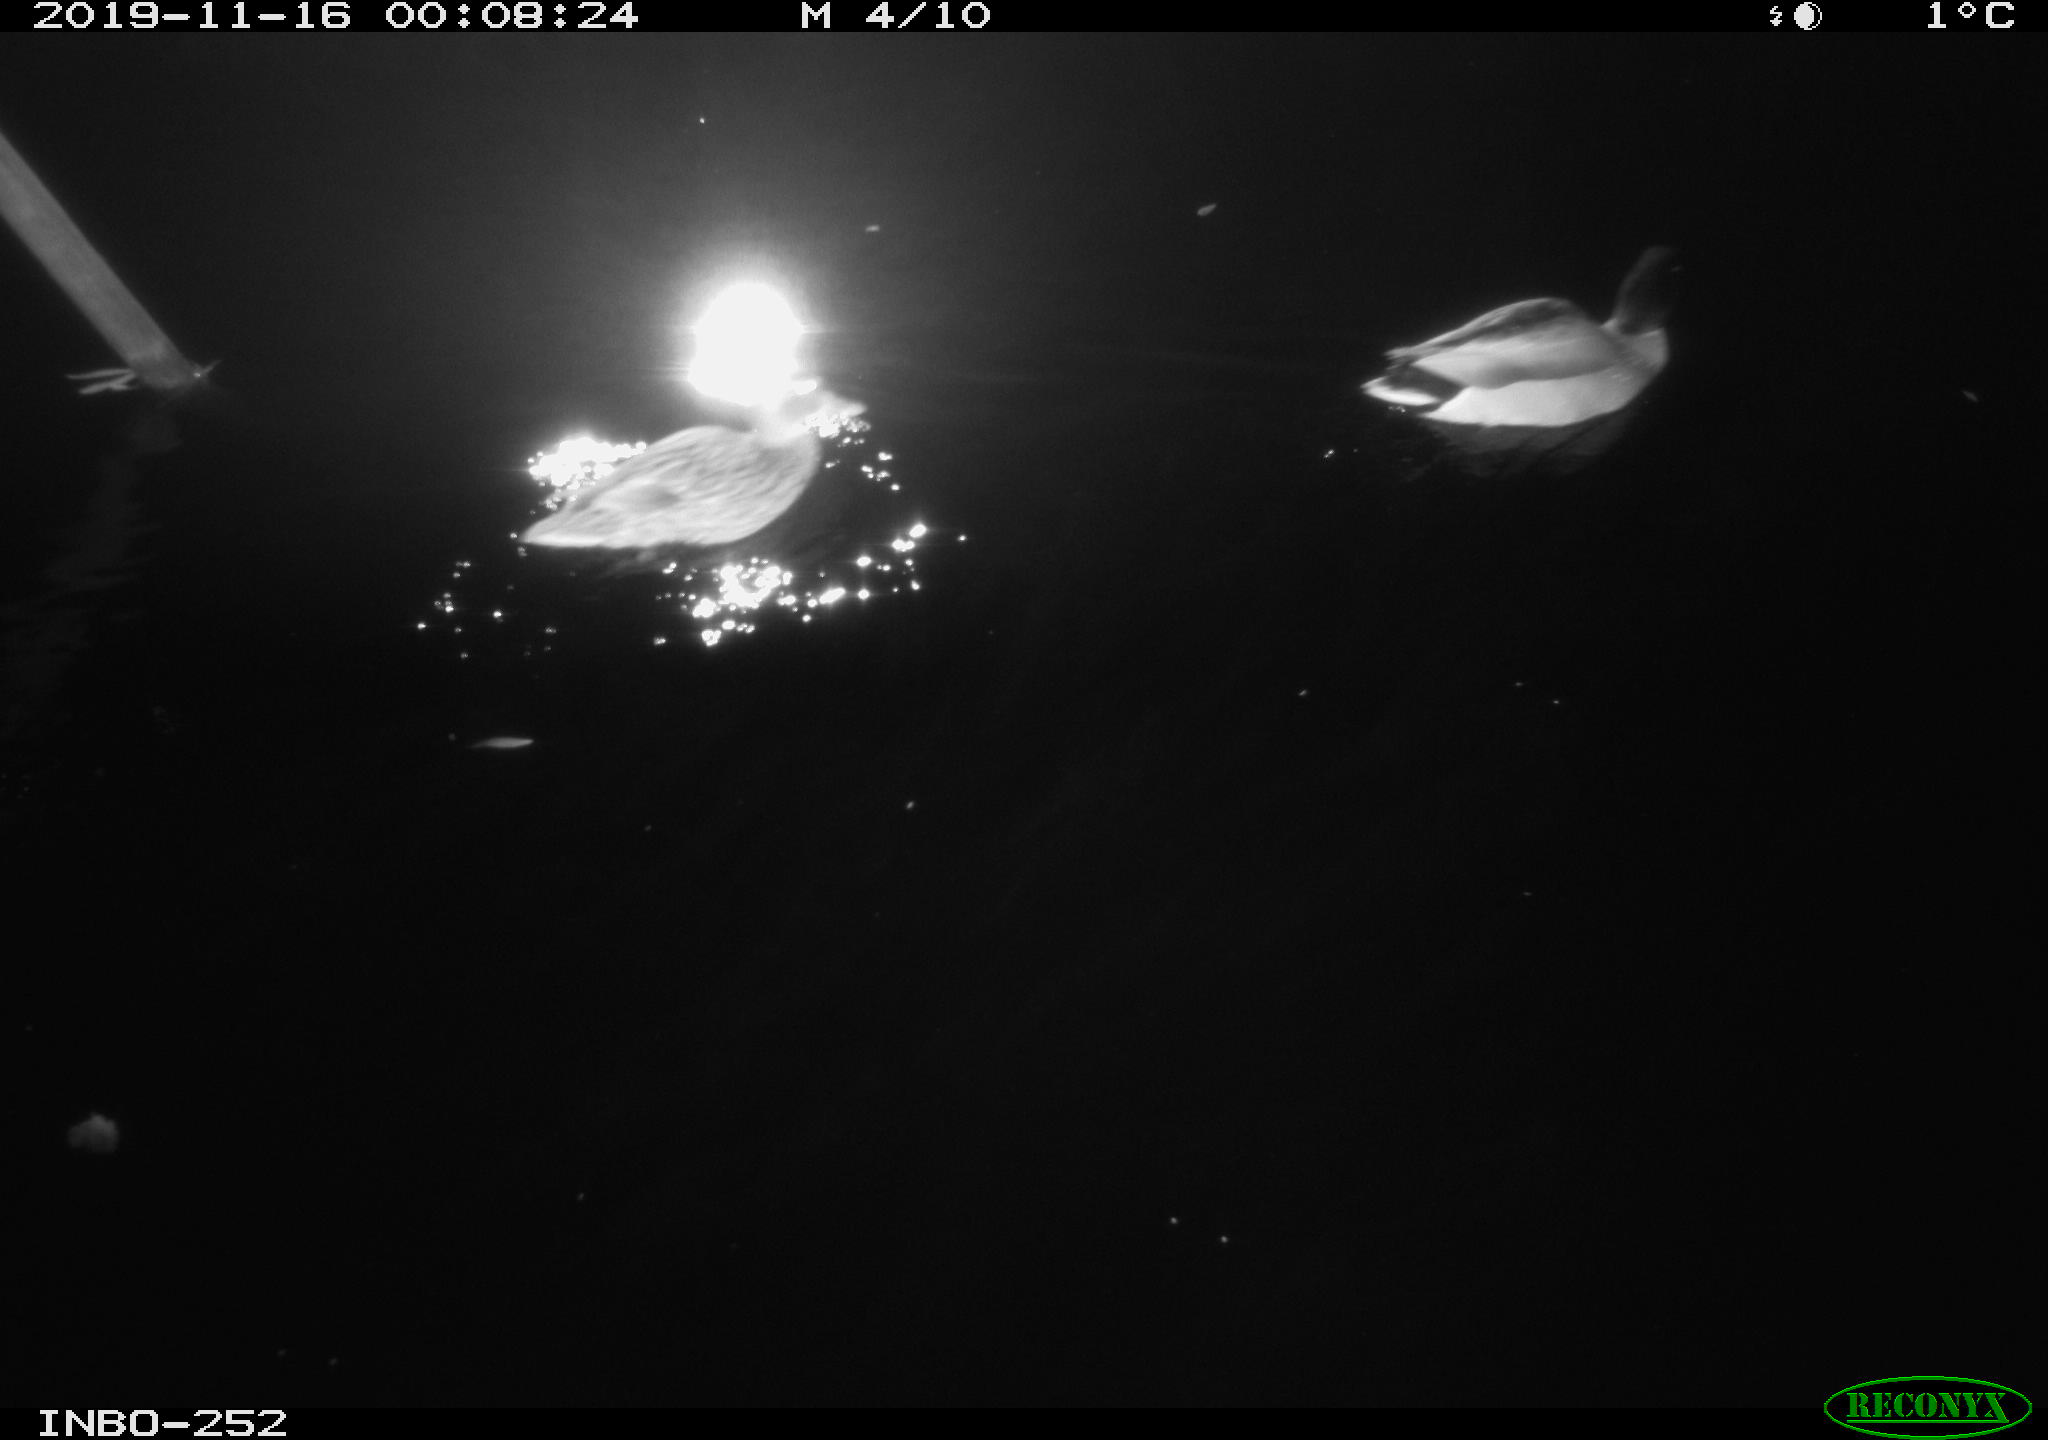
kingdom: Animalia
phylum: Chordata
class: Aves
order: Anseriformes
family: Anatidae
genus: Anas
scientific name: Anas platyrhynchos
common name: Mallard
